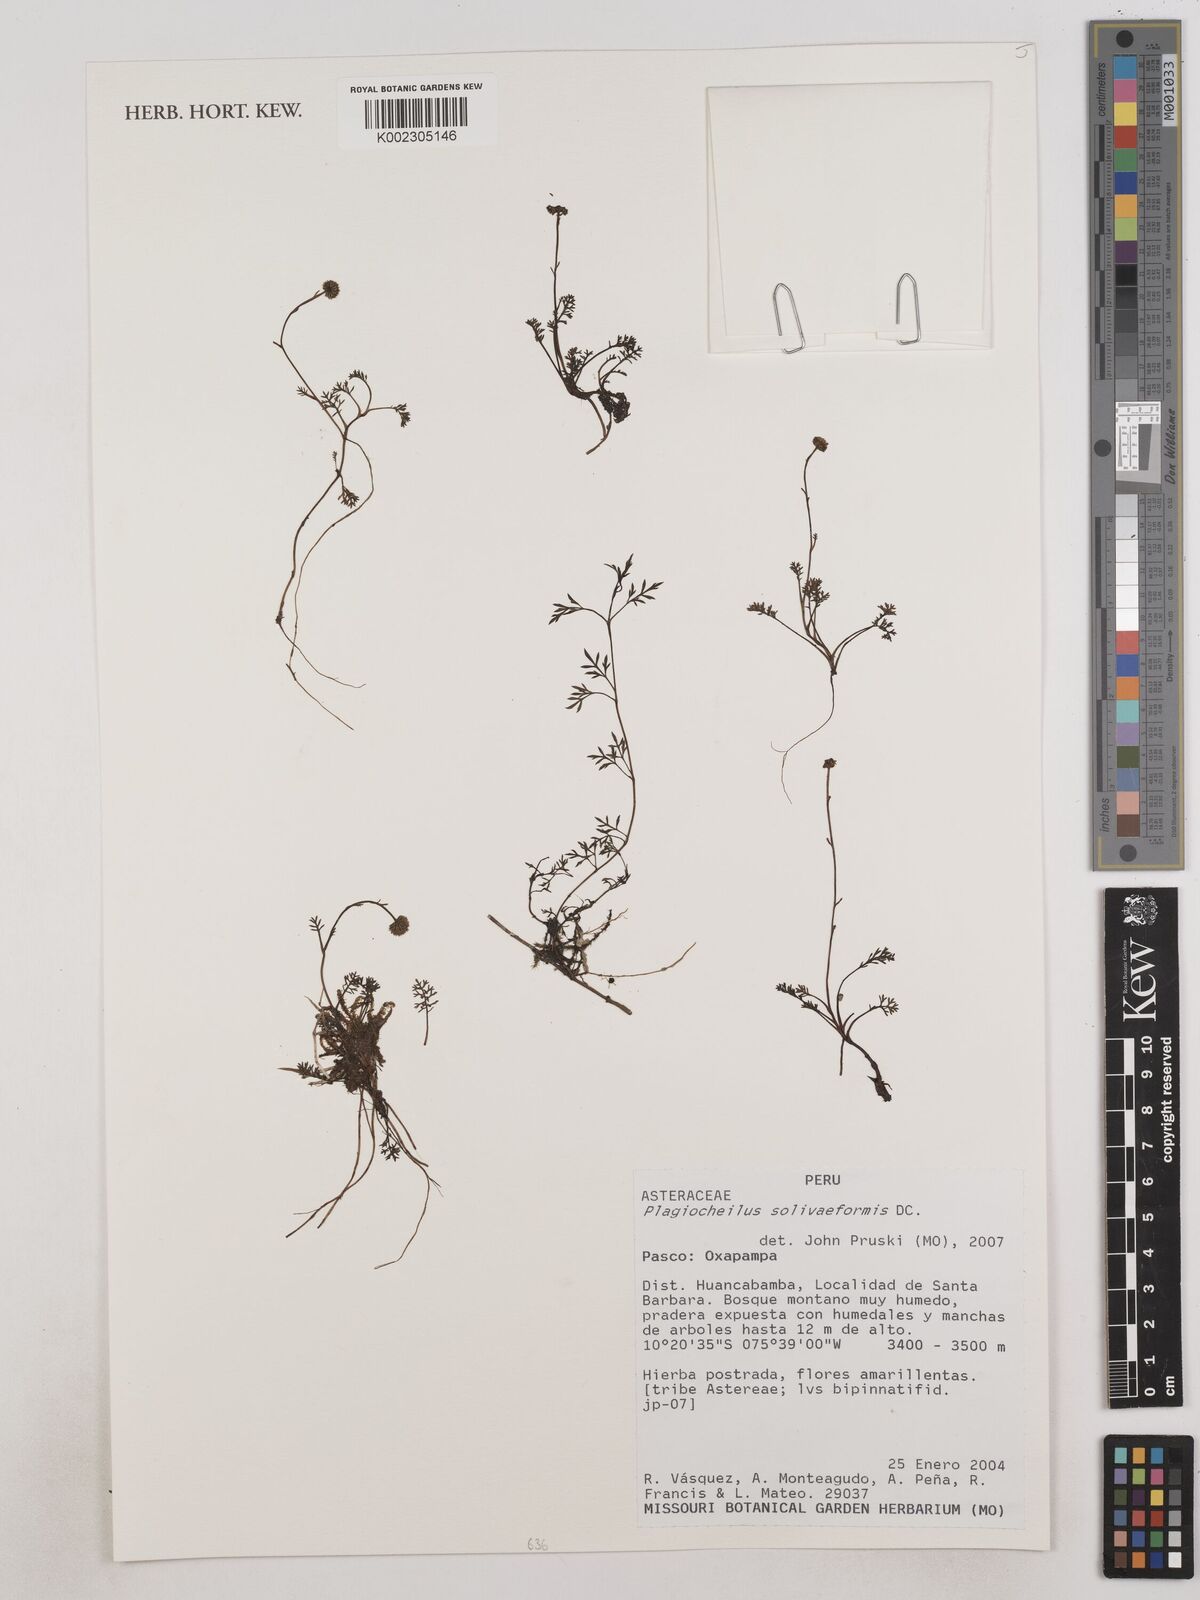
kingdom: Plantae
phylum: Tracheophyta
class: Magnoliopsida
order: Asterales
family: Asteraceae
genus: Plagiocheilus
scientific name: Plagiocheilus soliviformis
